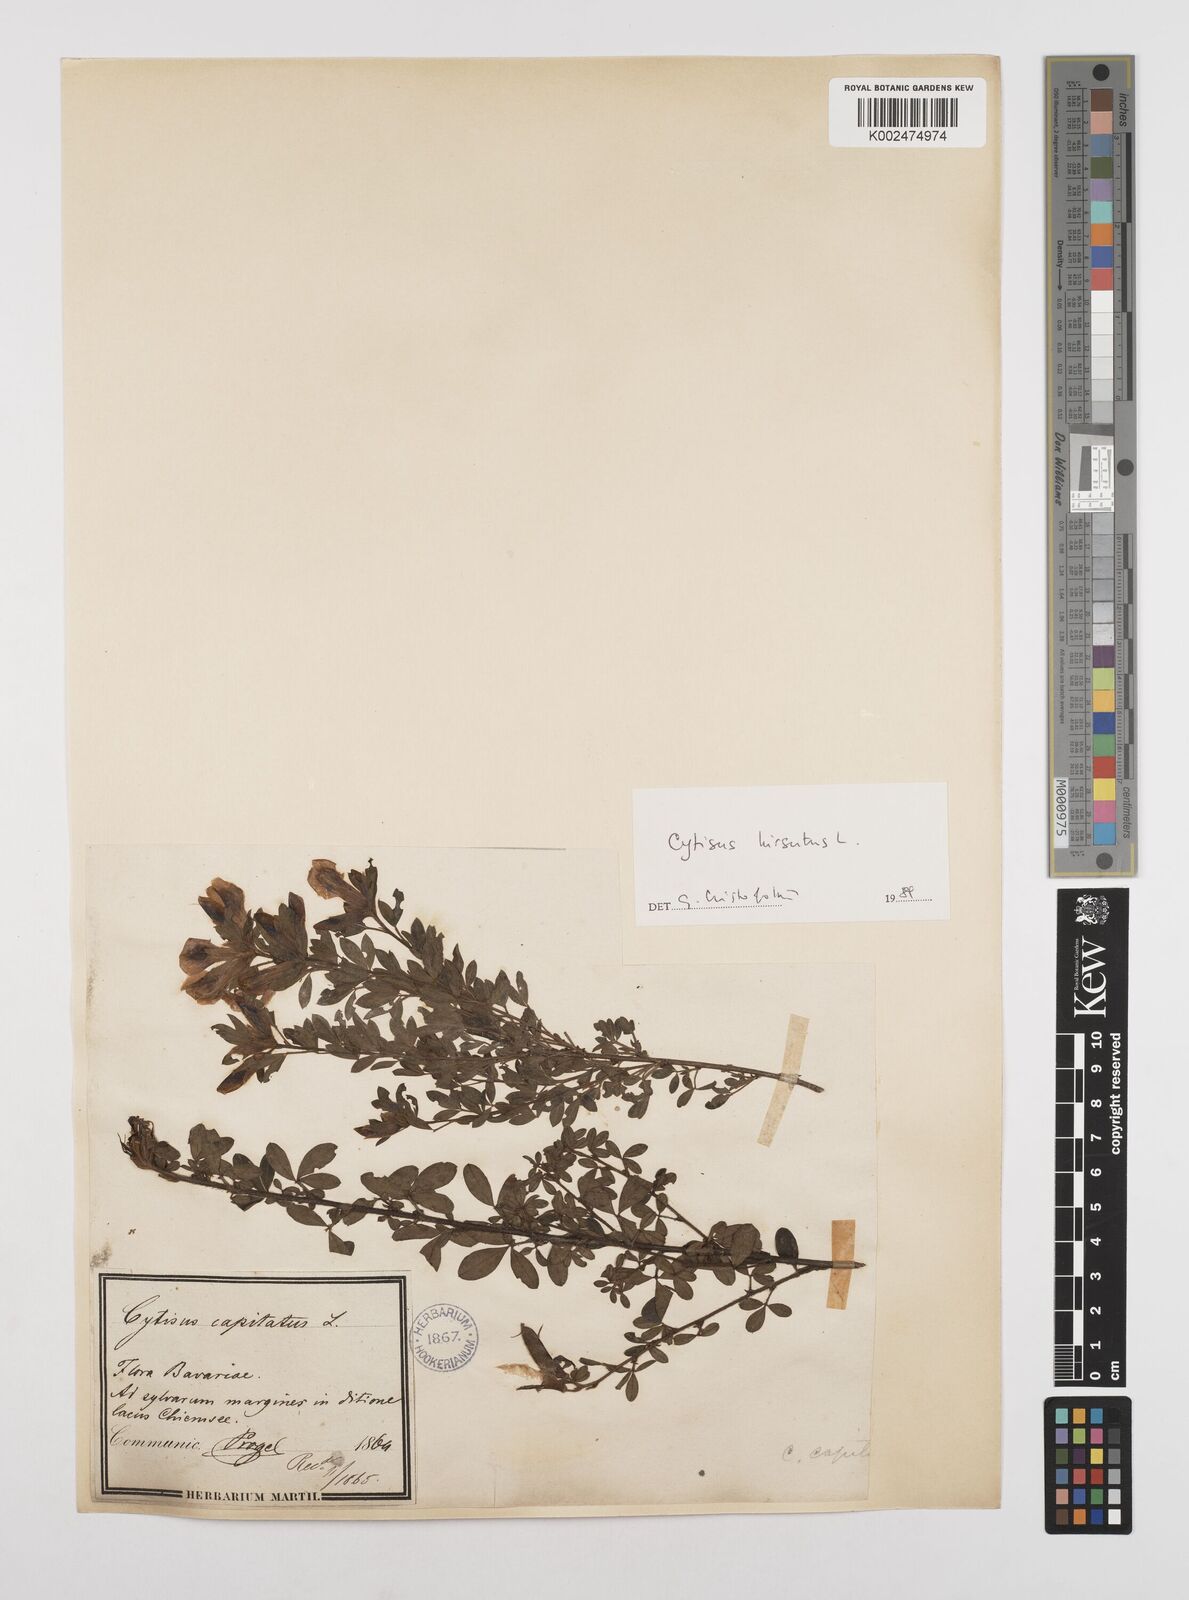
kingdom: Plantae
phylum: Tracheophyta
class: Magnoliopsida
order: Fabales
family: Fabaceae
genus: Chamaecytisus
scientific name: Chamaecytisus hirsutus
